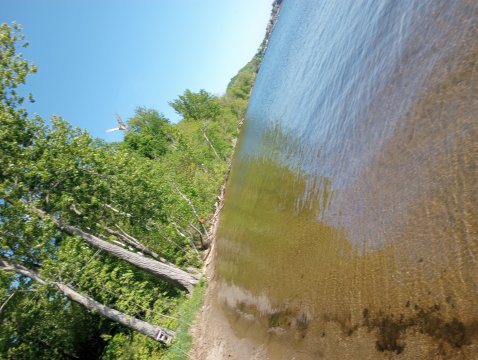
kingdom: Animalia
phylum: Arthropoda
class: Insecta
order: Lepidoptera
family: Papilionidae
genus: Pterourus
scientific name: Pterourus canadensis
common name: Canadian Tiger Swallowtail
